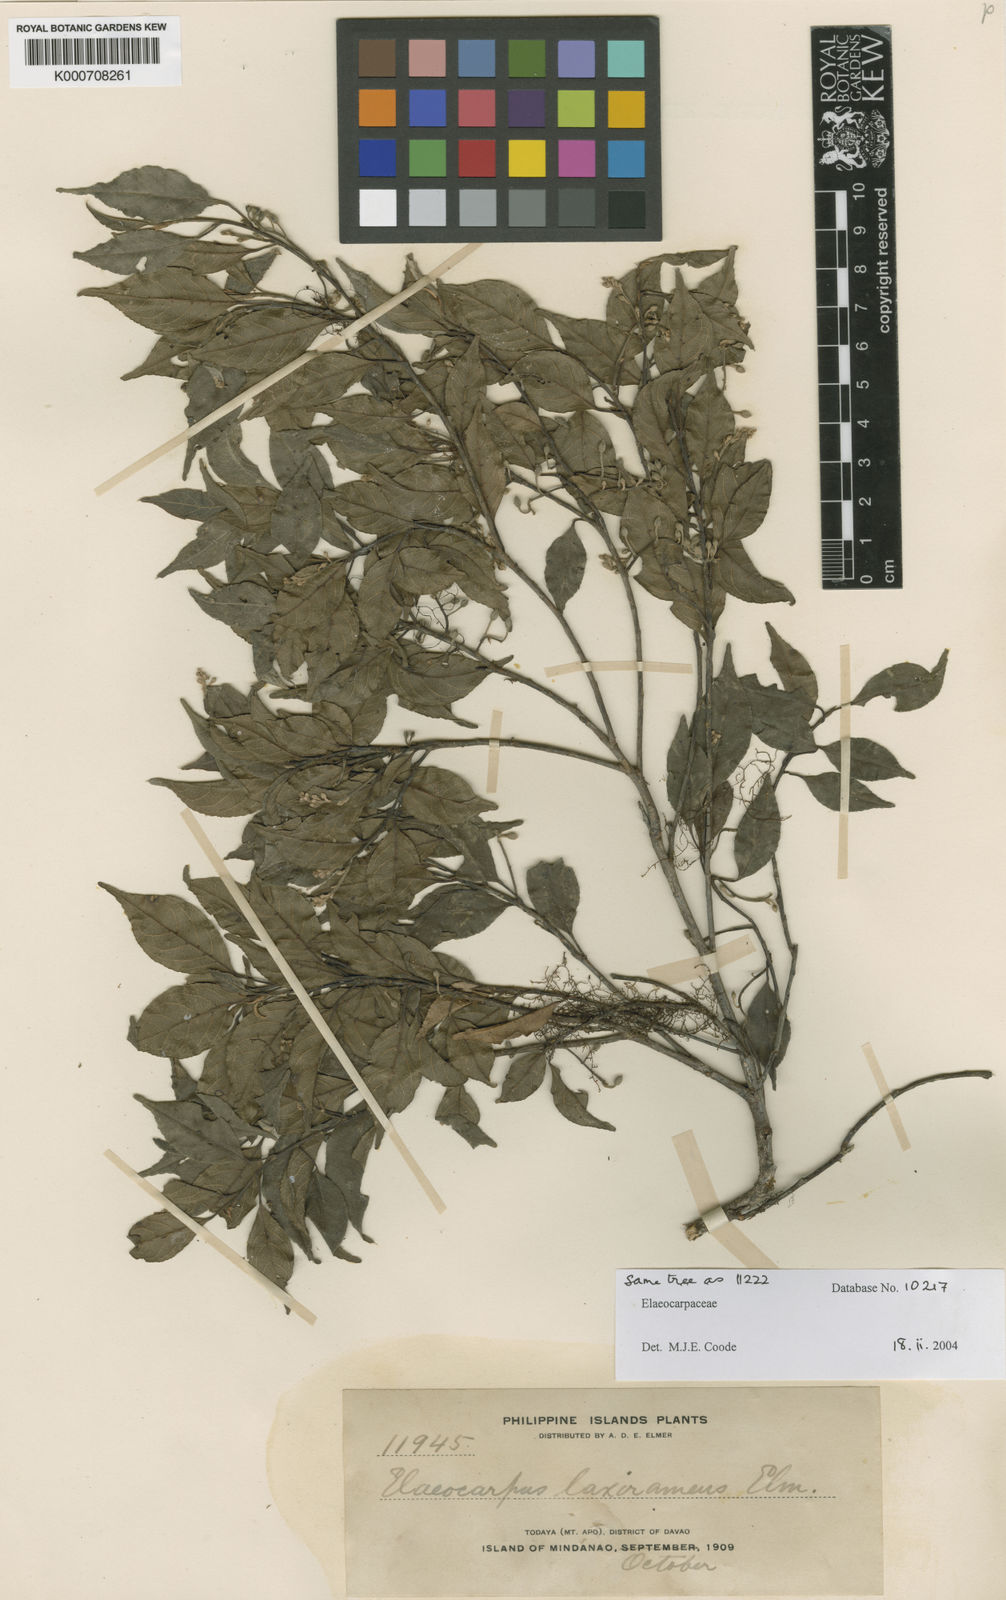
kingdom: Plantae
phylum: Tracheophyta
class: Magnoliopsida
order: Oxalidales
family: Elaeocarpaceae
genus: Elaeocarpus
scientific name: Elaeocarpus cuernosensis
